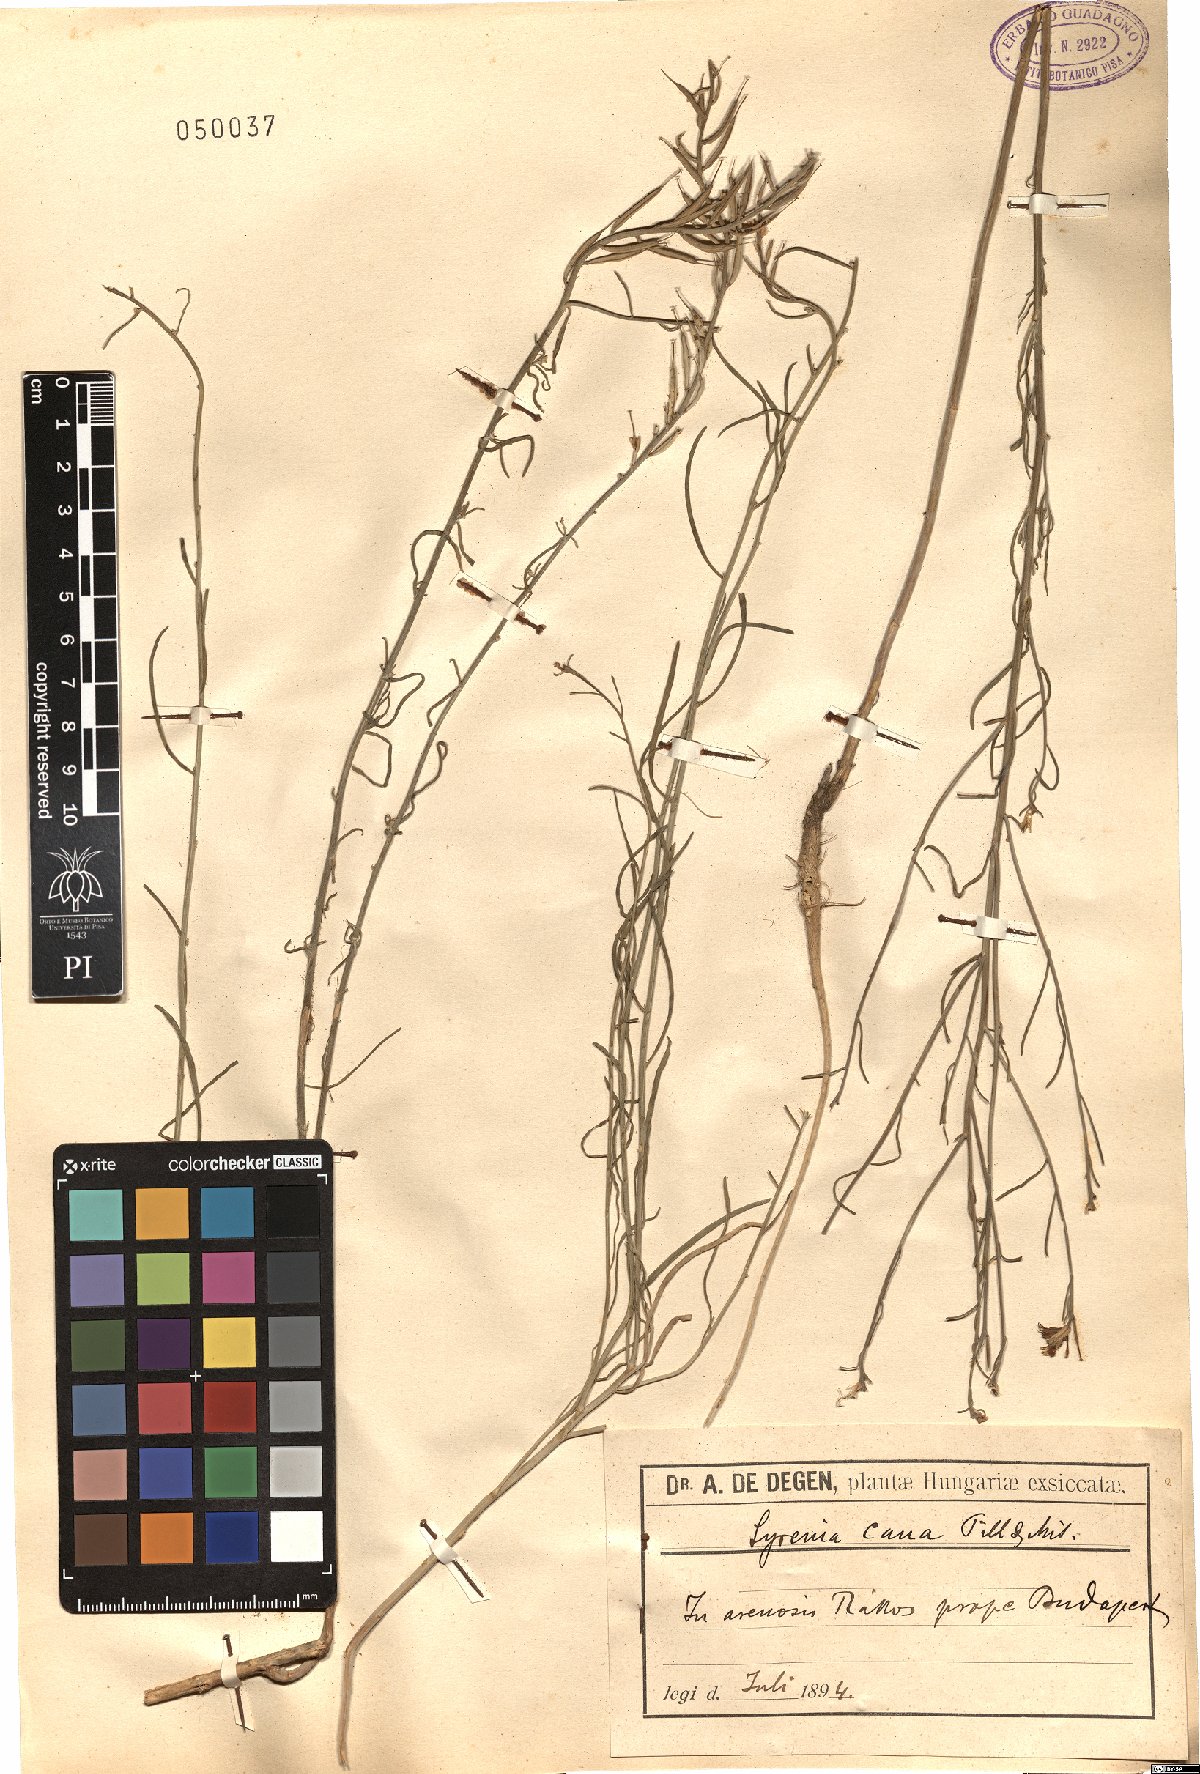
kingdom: Plantae
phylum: Tracheophyta
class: Magnoliopsida
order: Brassicales
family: Brassicaceae
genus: Erysimum
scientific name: Erysimum canum
